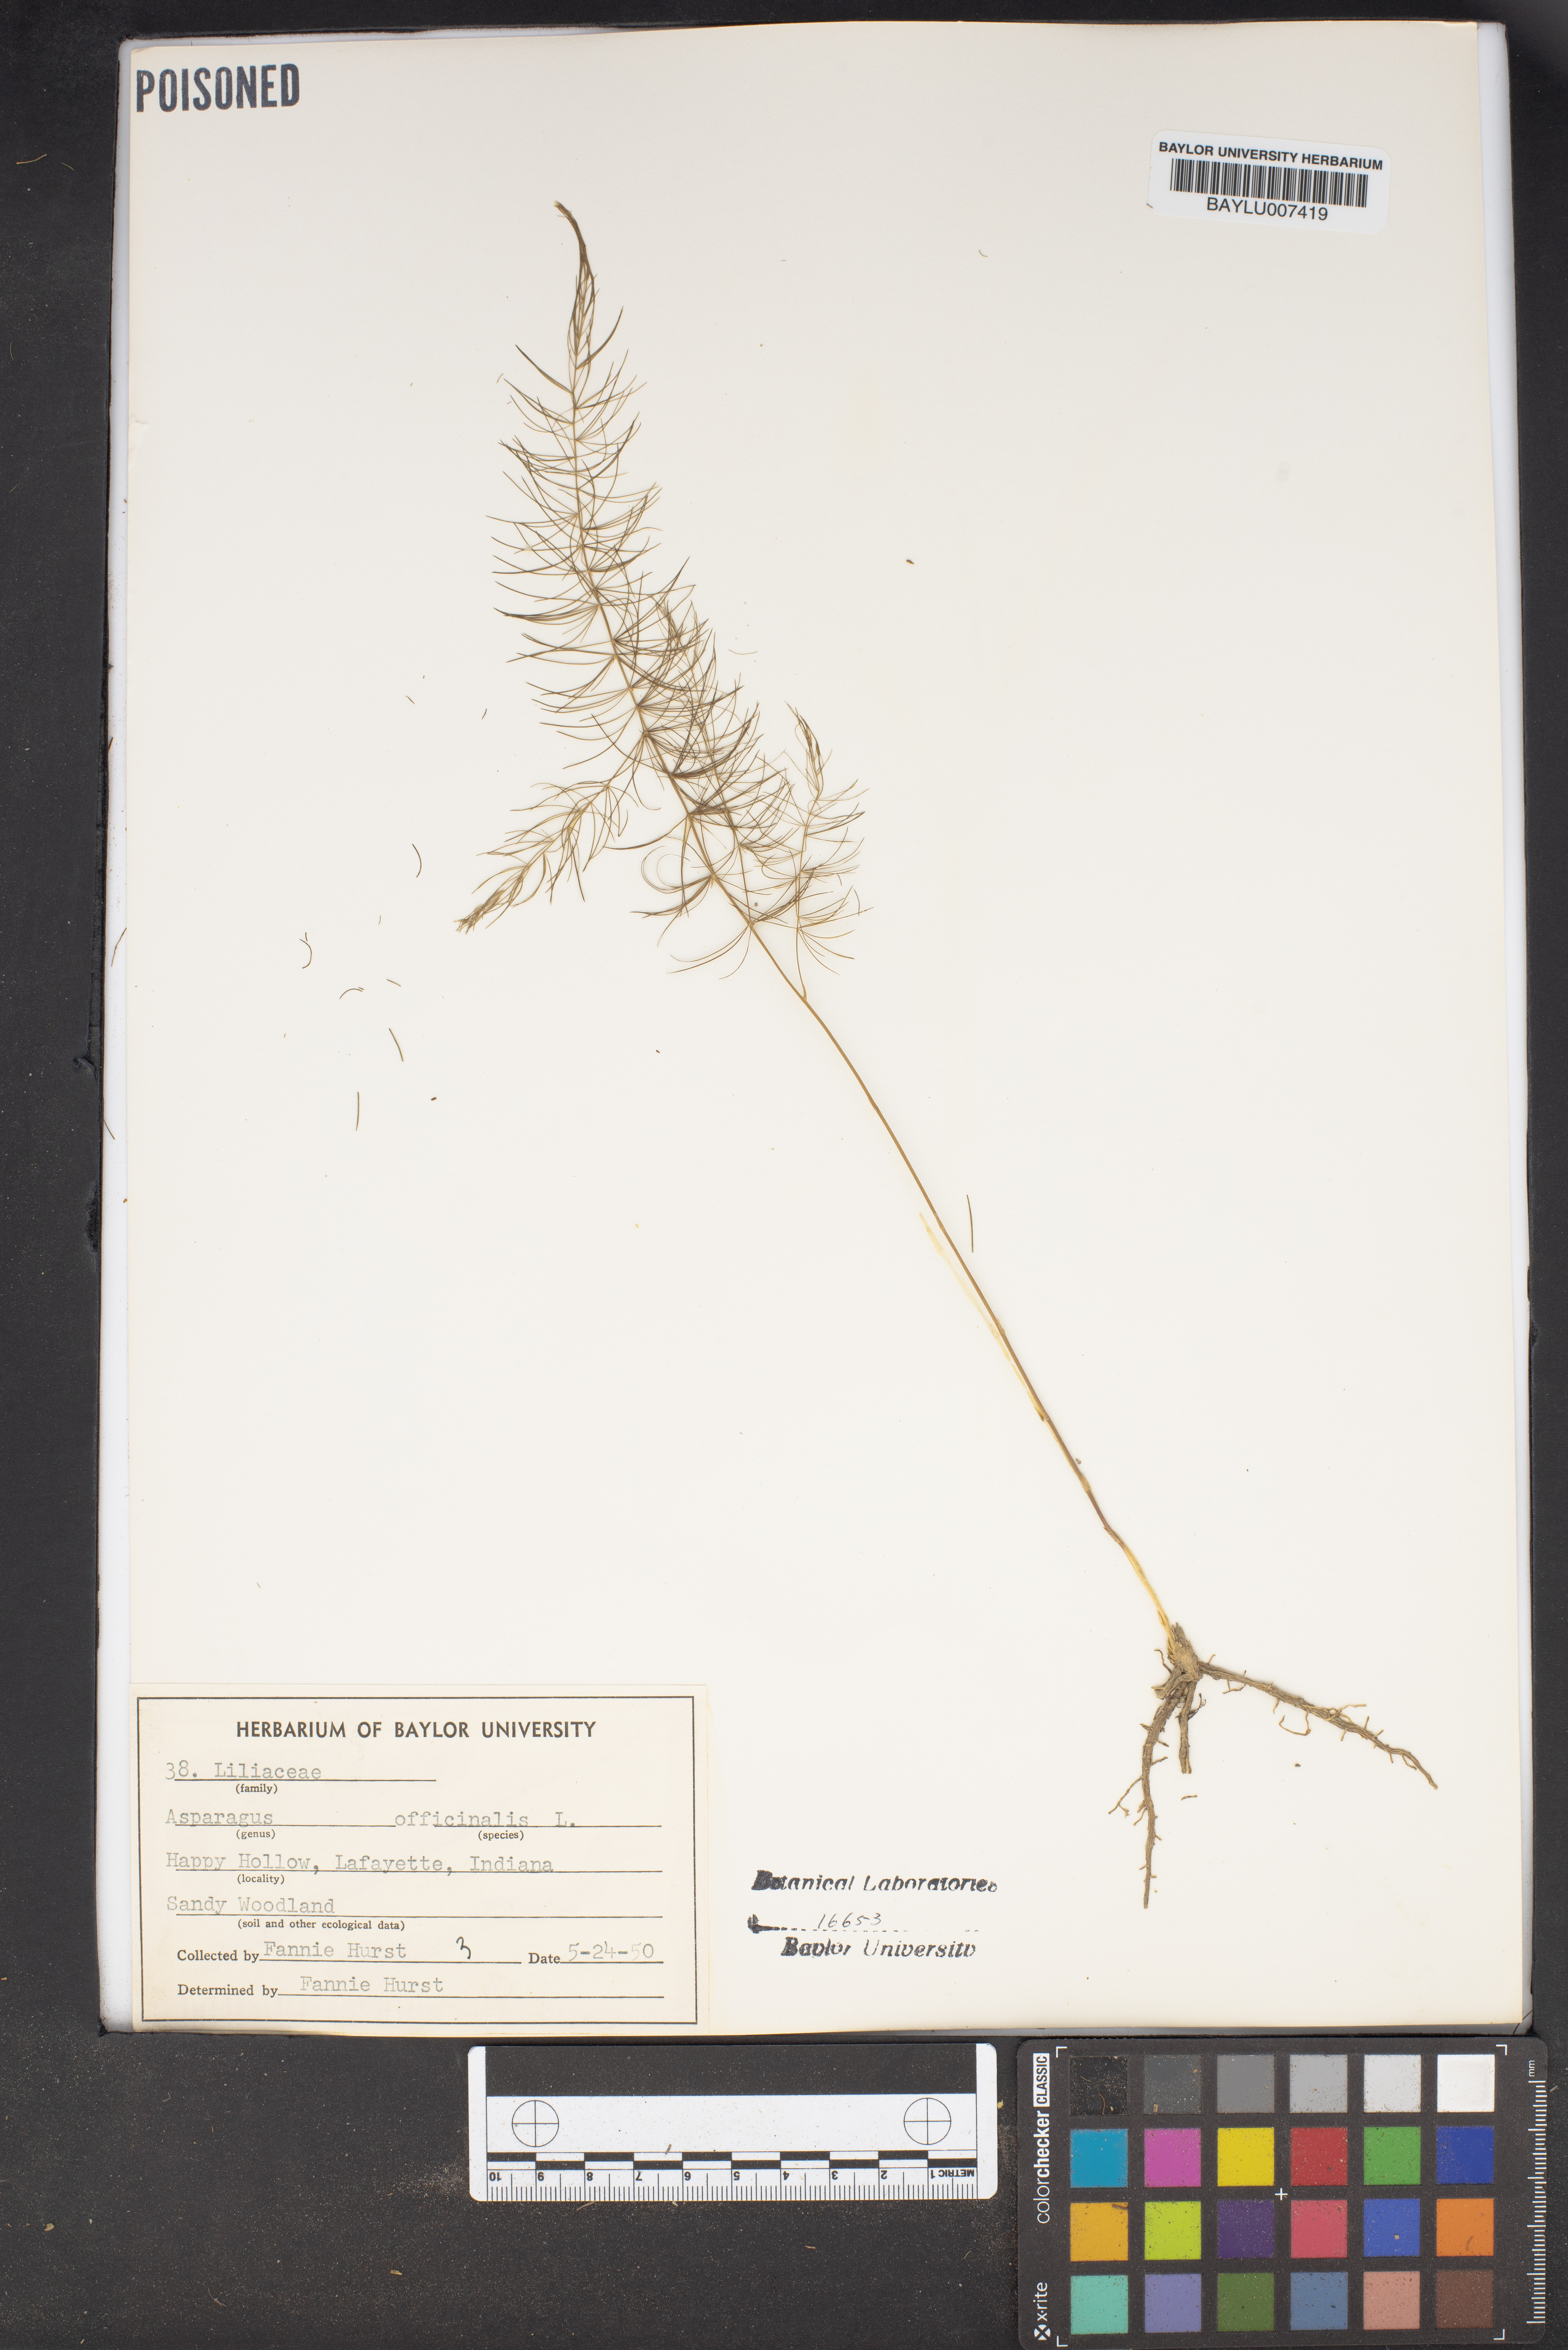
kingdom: Plantae
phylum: Tracheophyta
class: Liliopsida
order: Asparagales
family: Asparagaceae
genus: Asparagus
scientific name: Asparagus officinalis
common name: Garden asparagus
